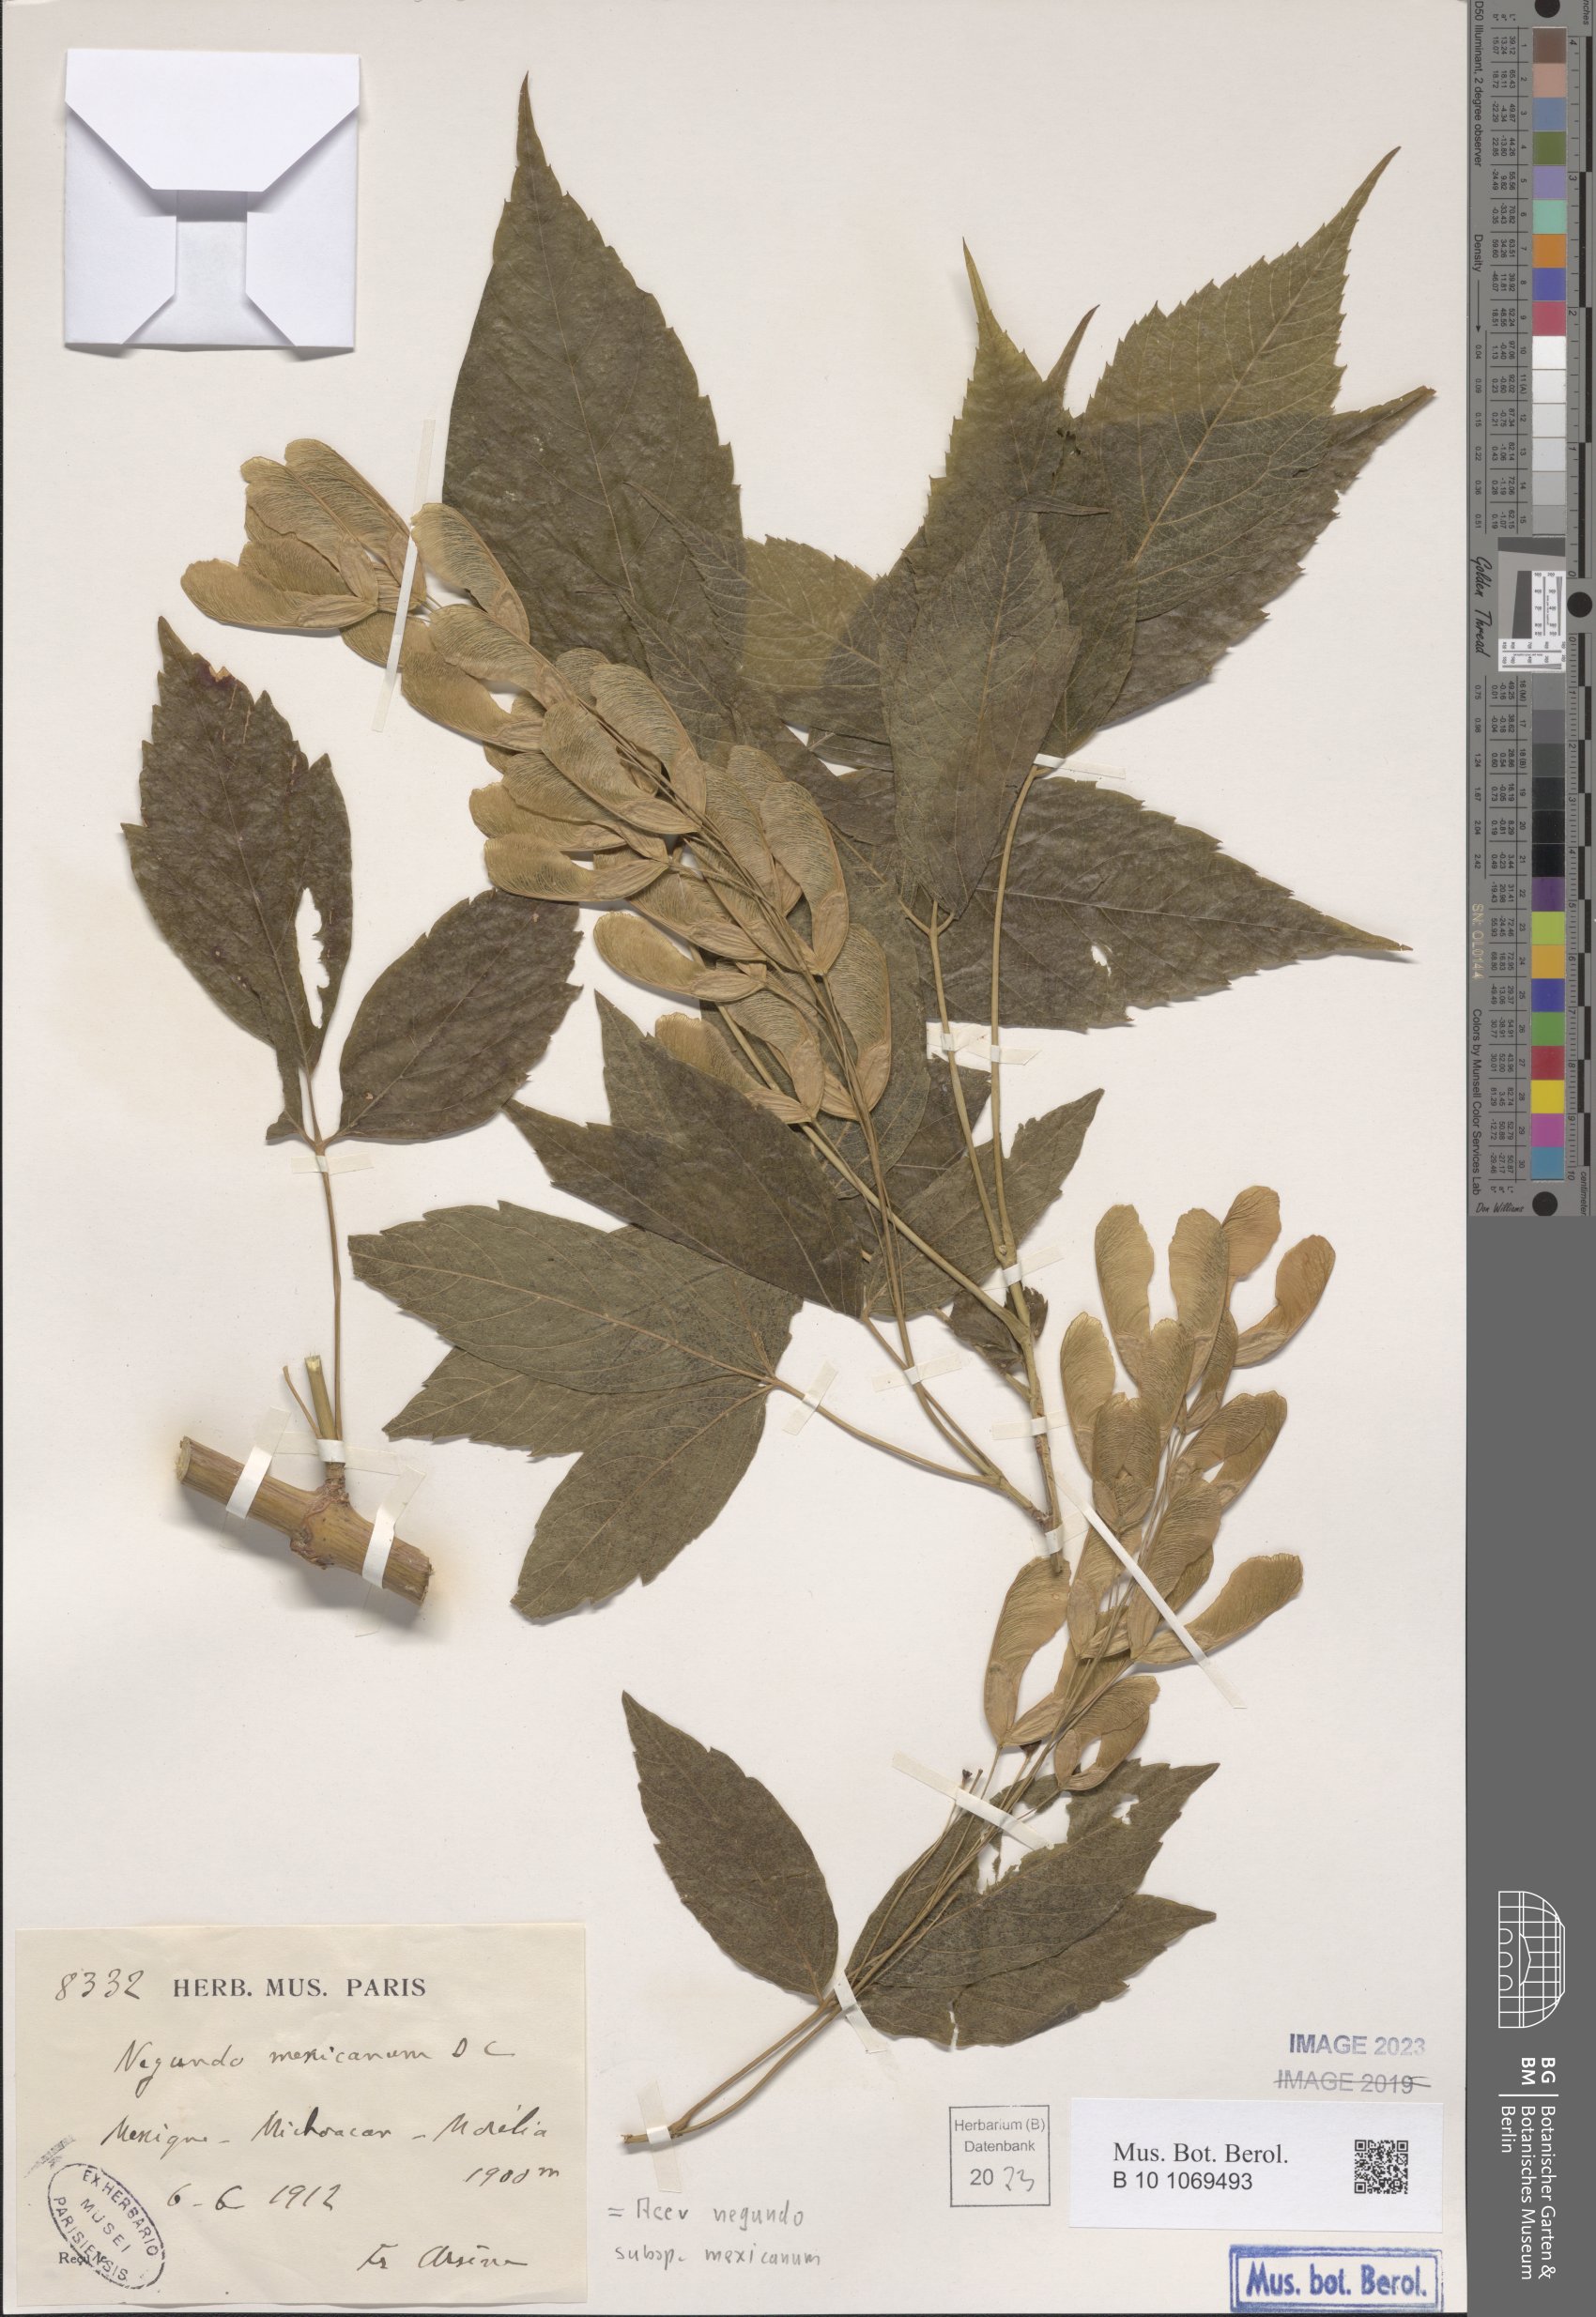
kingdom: Plantae
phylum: Tracheophyta
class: Magnoliopsida
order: Sapindales
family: Sapindaceae
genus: Acer
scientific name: Acer negundo
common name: Ashleaf maple
